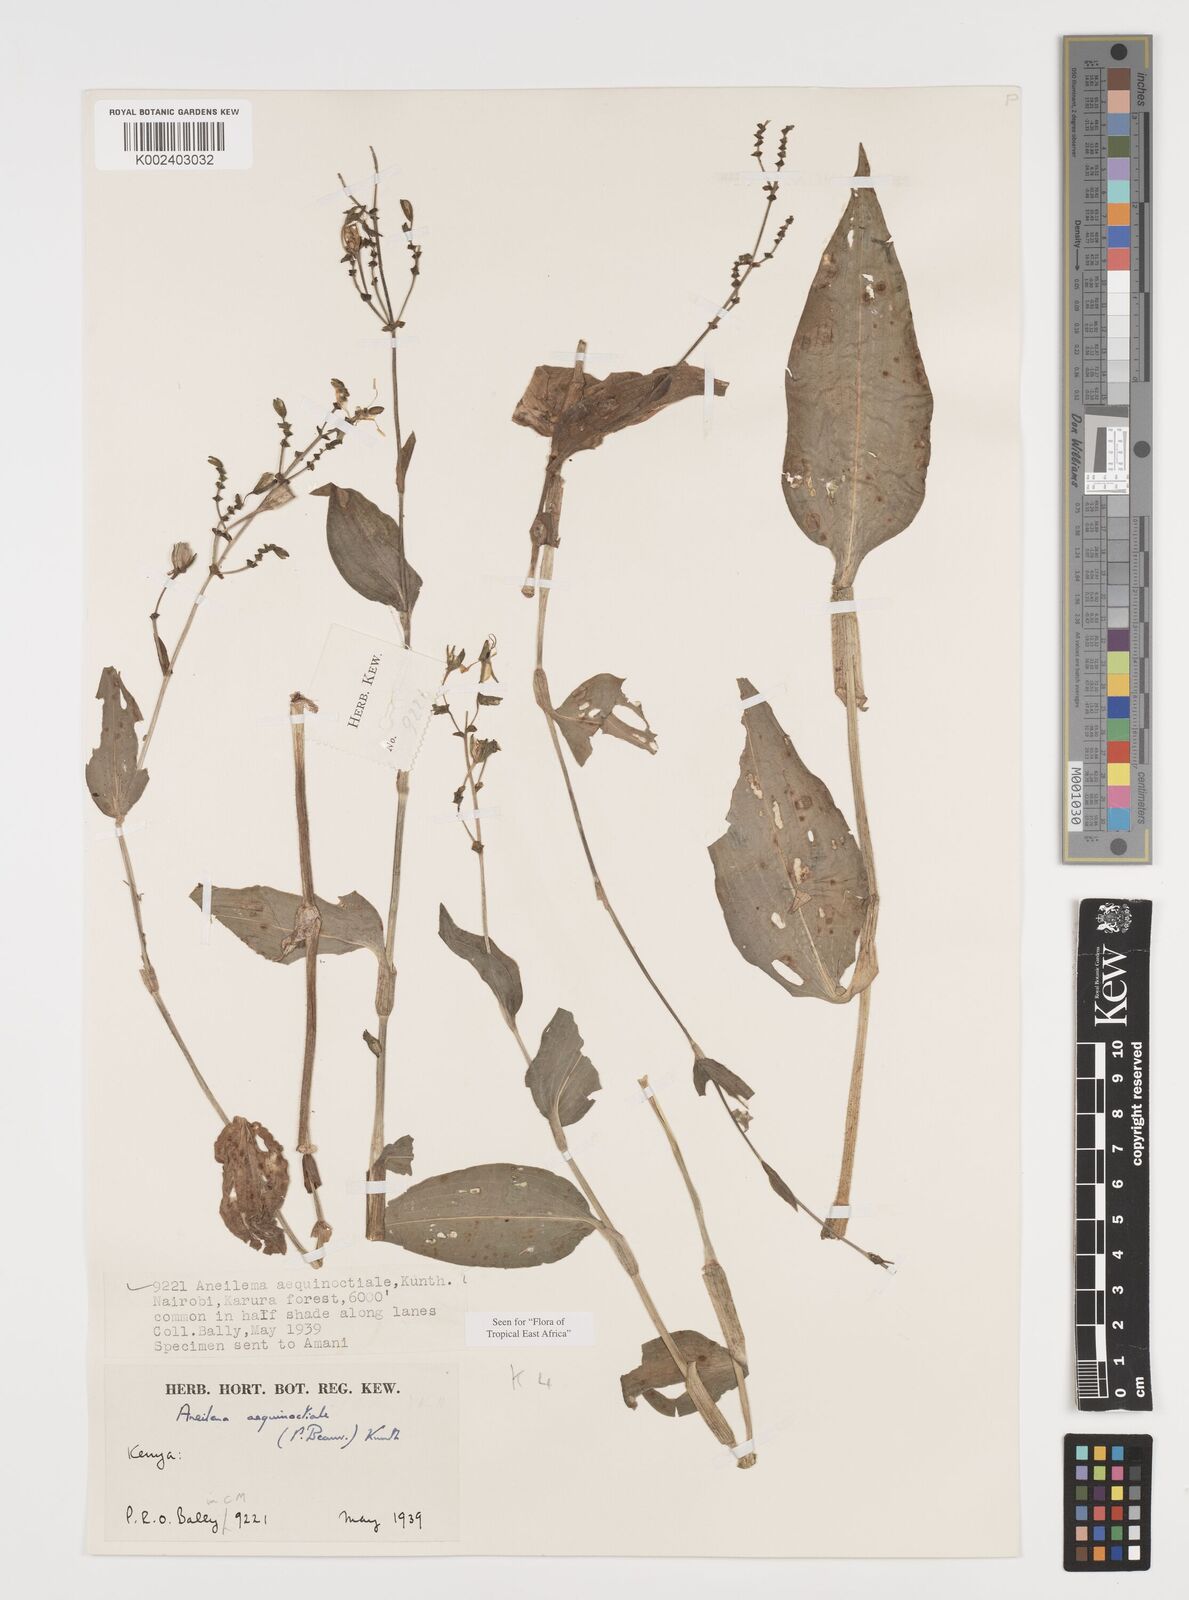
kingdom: Plantae
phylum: Tracheophyta
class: Liliopsida
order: Commelinales
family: Commelinaceae
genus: Aneilema
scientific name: Aneilema aequinoctiale
